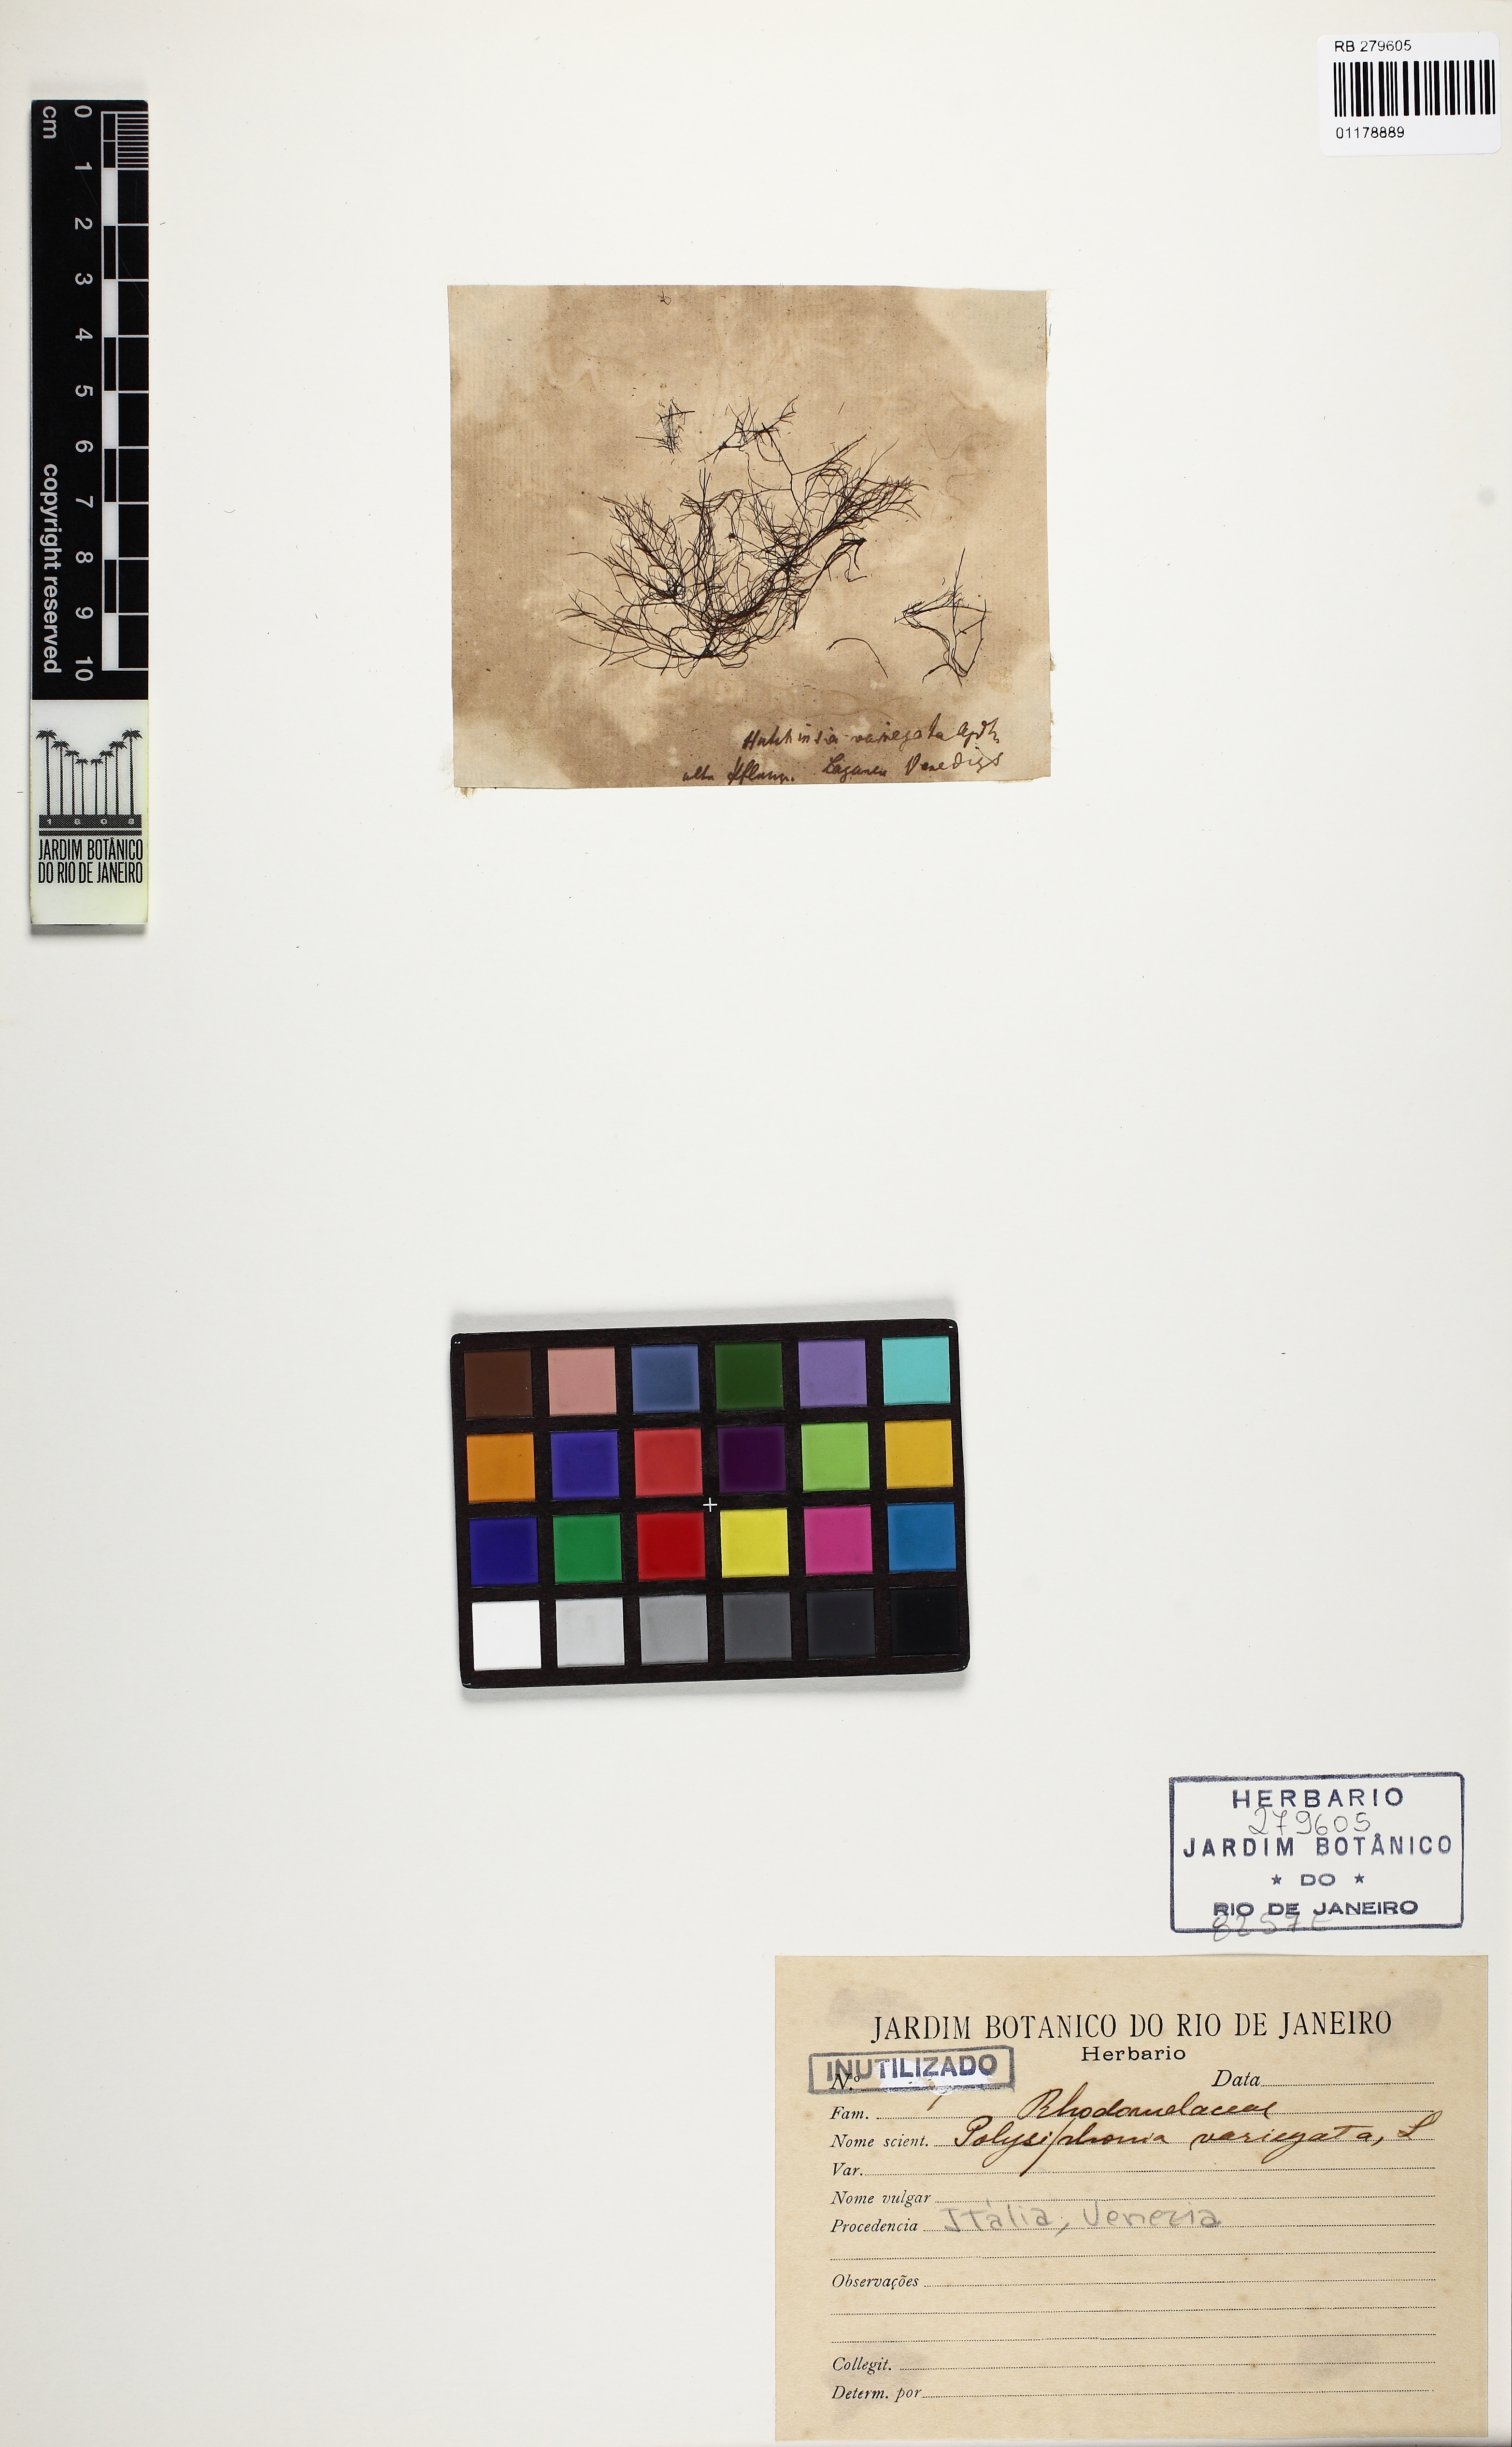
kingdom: Plantae
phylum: Rhodophyta
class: Florideophyceae
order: Ceramiales
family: Rhodomelaceae
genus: Polysiphonia
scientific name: Polysiphonia denudata
